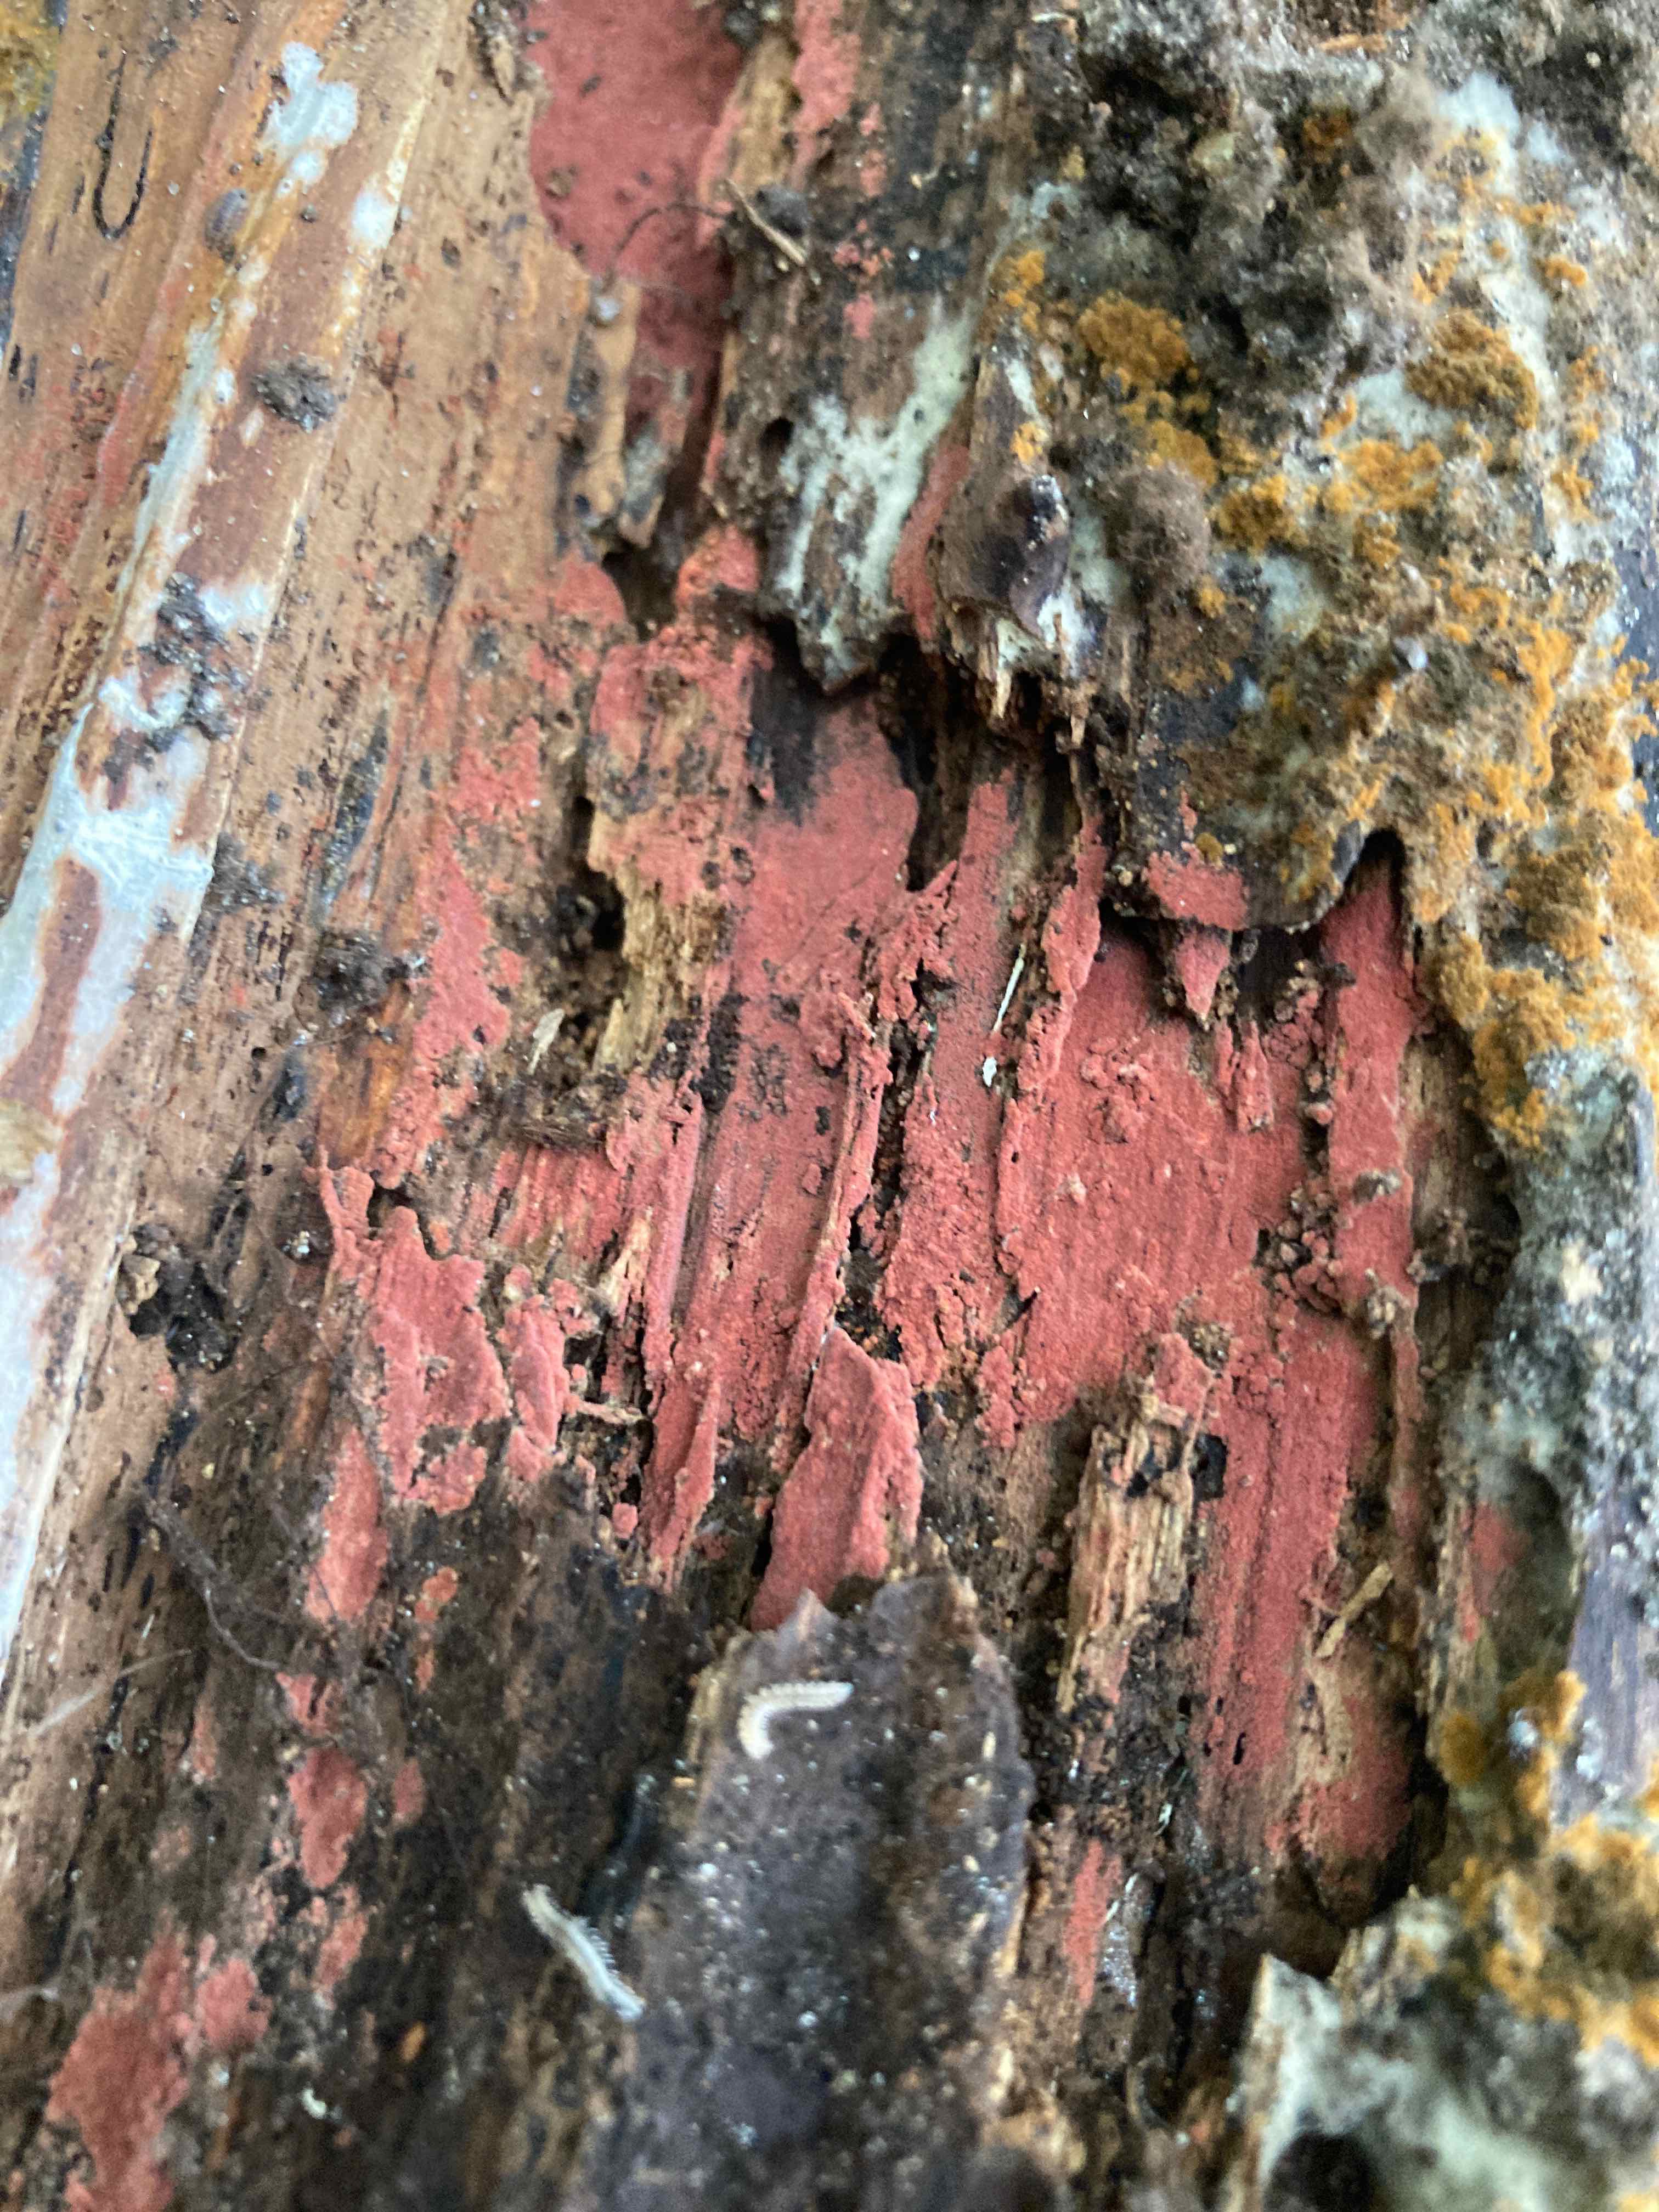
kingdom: Fungi
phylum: Basidiomycota
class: Agaricomycetes
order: Thelephorales
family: Thelephoraceae
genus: Tomentella
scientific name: Tomentella lateritia
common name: teglrød frynsehinde
